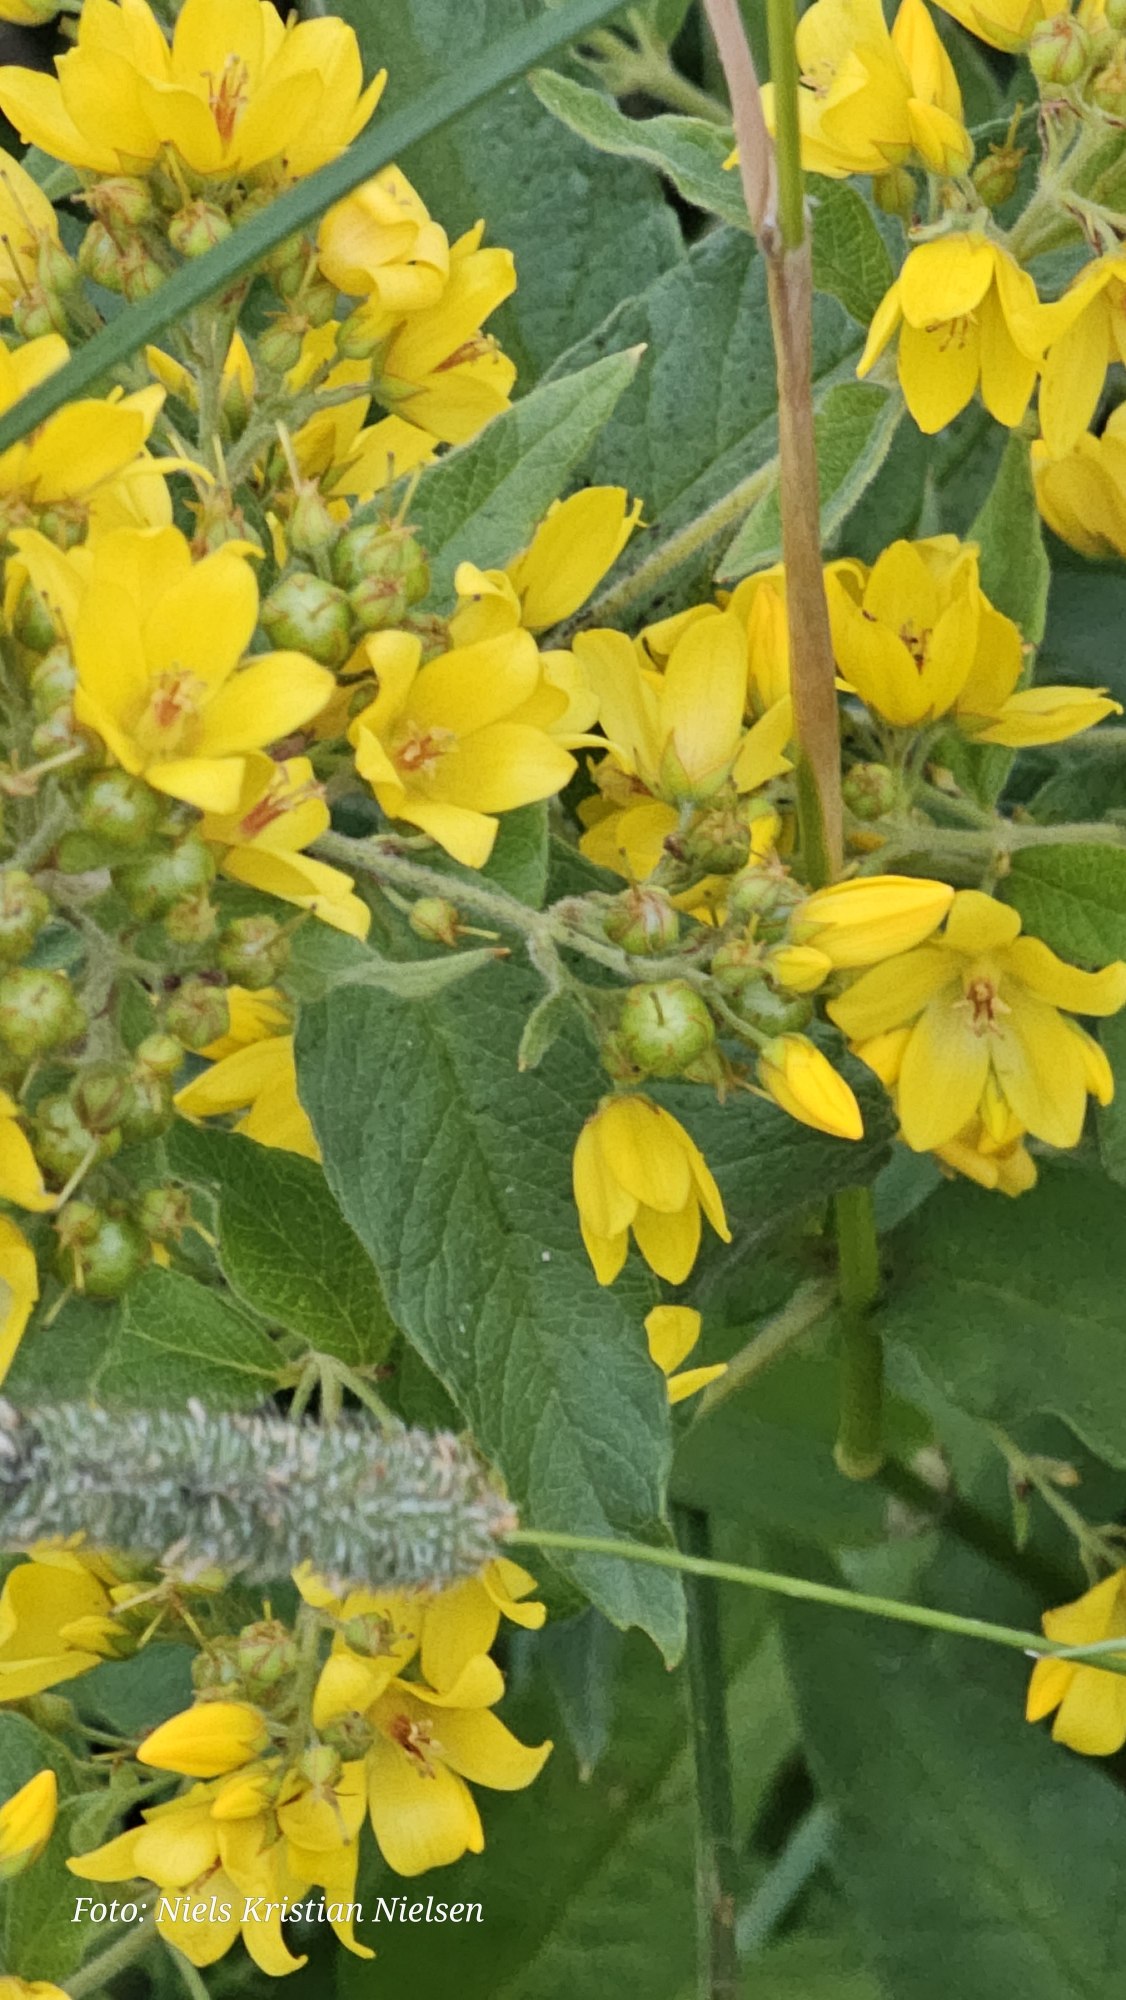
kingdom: Plantae
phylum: Tracheophyta
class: Magnoliopsida
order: Ericales
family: Primulaceae
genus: Lysimachia
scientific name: Lysimachia vulgaris
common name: Almindelig fredløs
